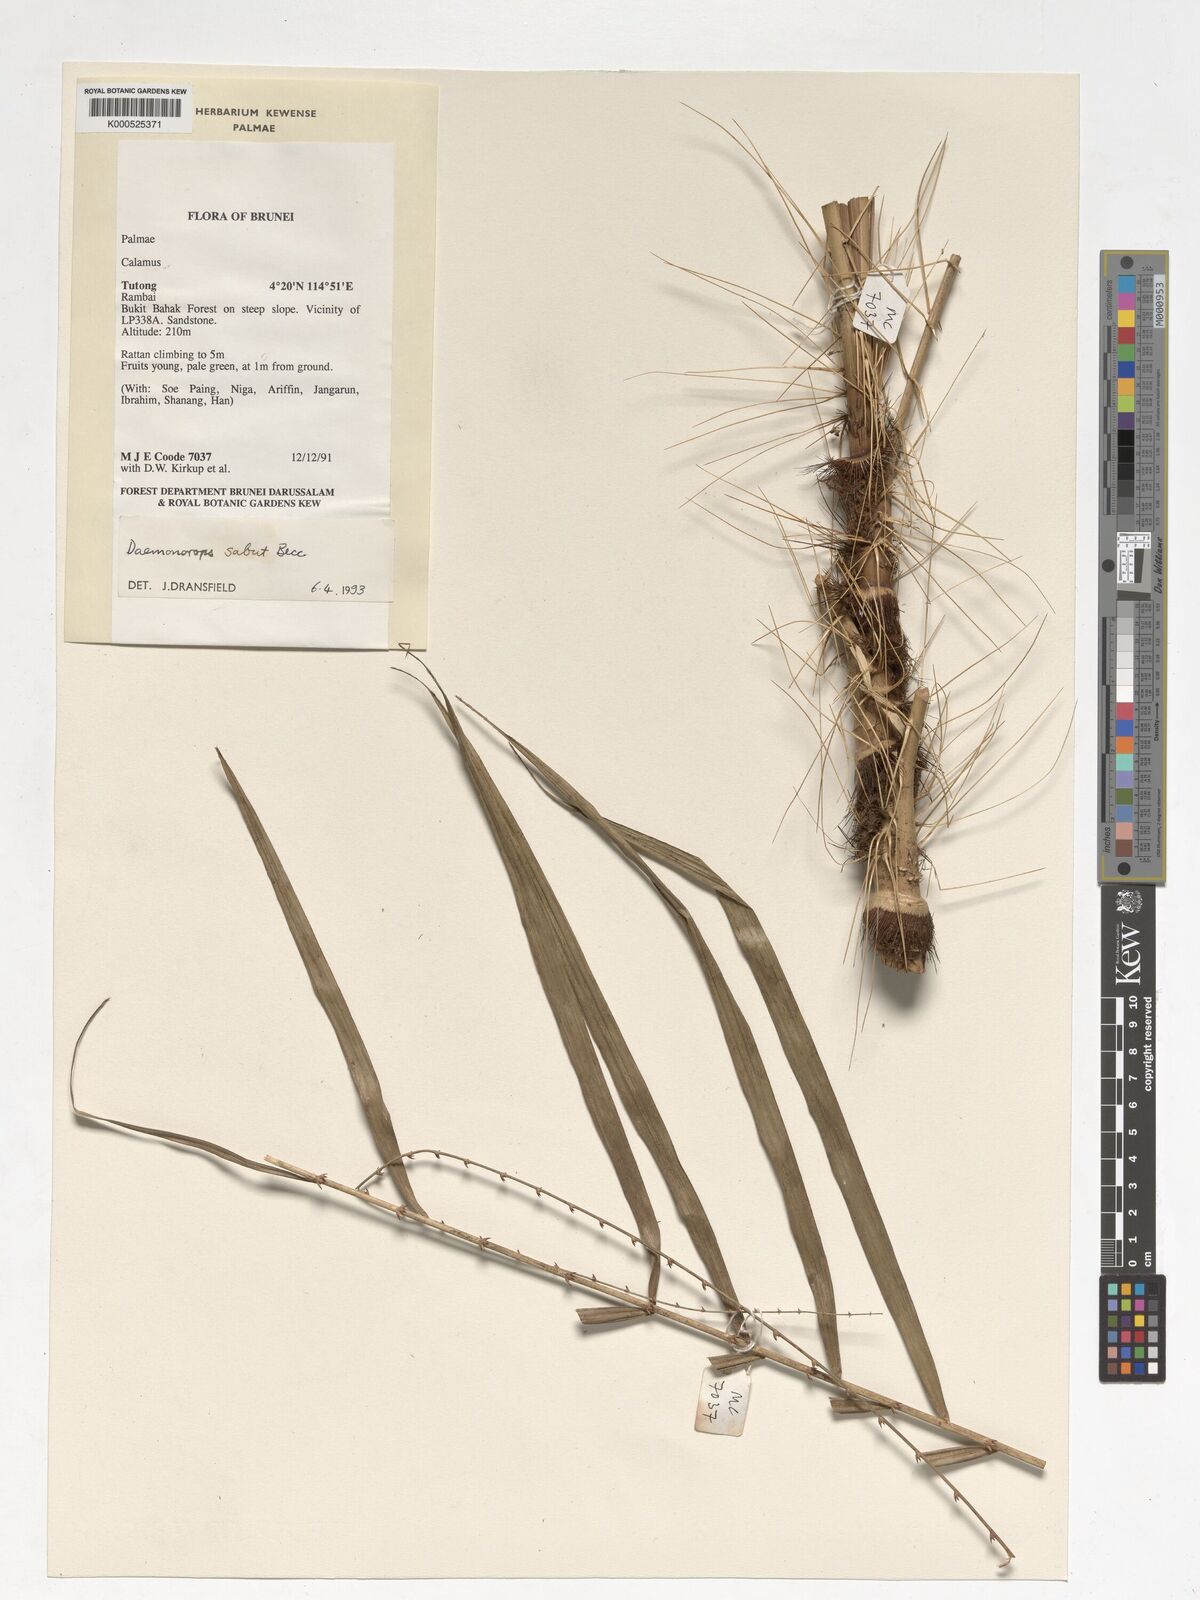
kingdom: Plantae
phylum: Tracheophyta
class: Liliopsida
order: Arecales
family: Arecaceae
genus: Calamus
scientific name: Calamus geniculatus
